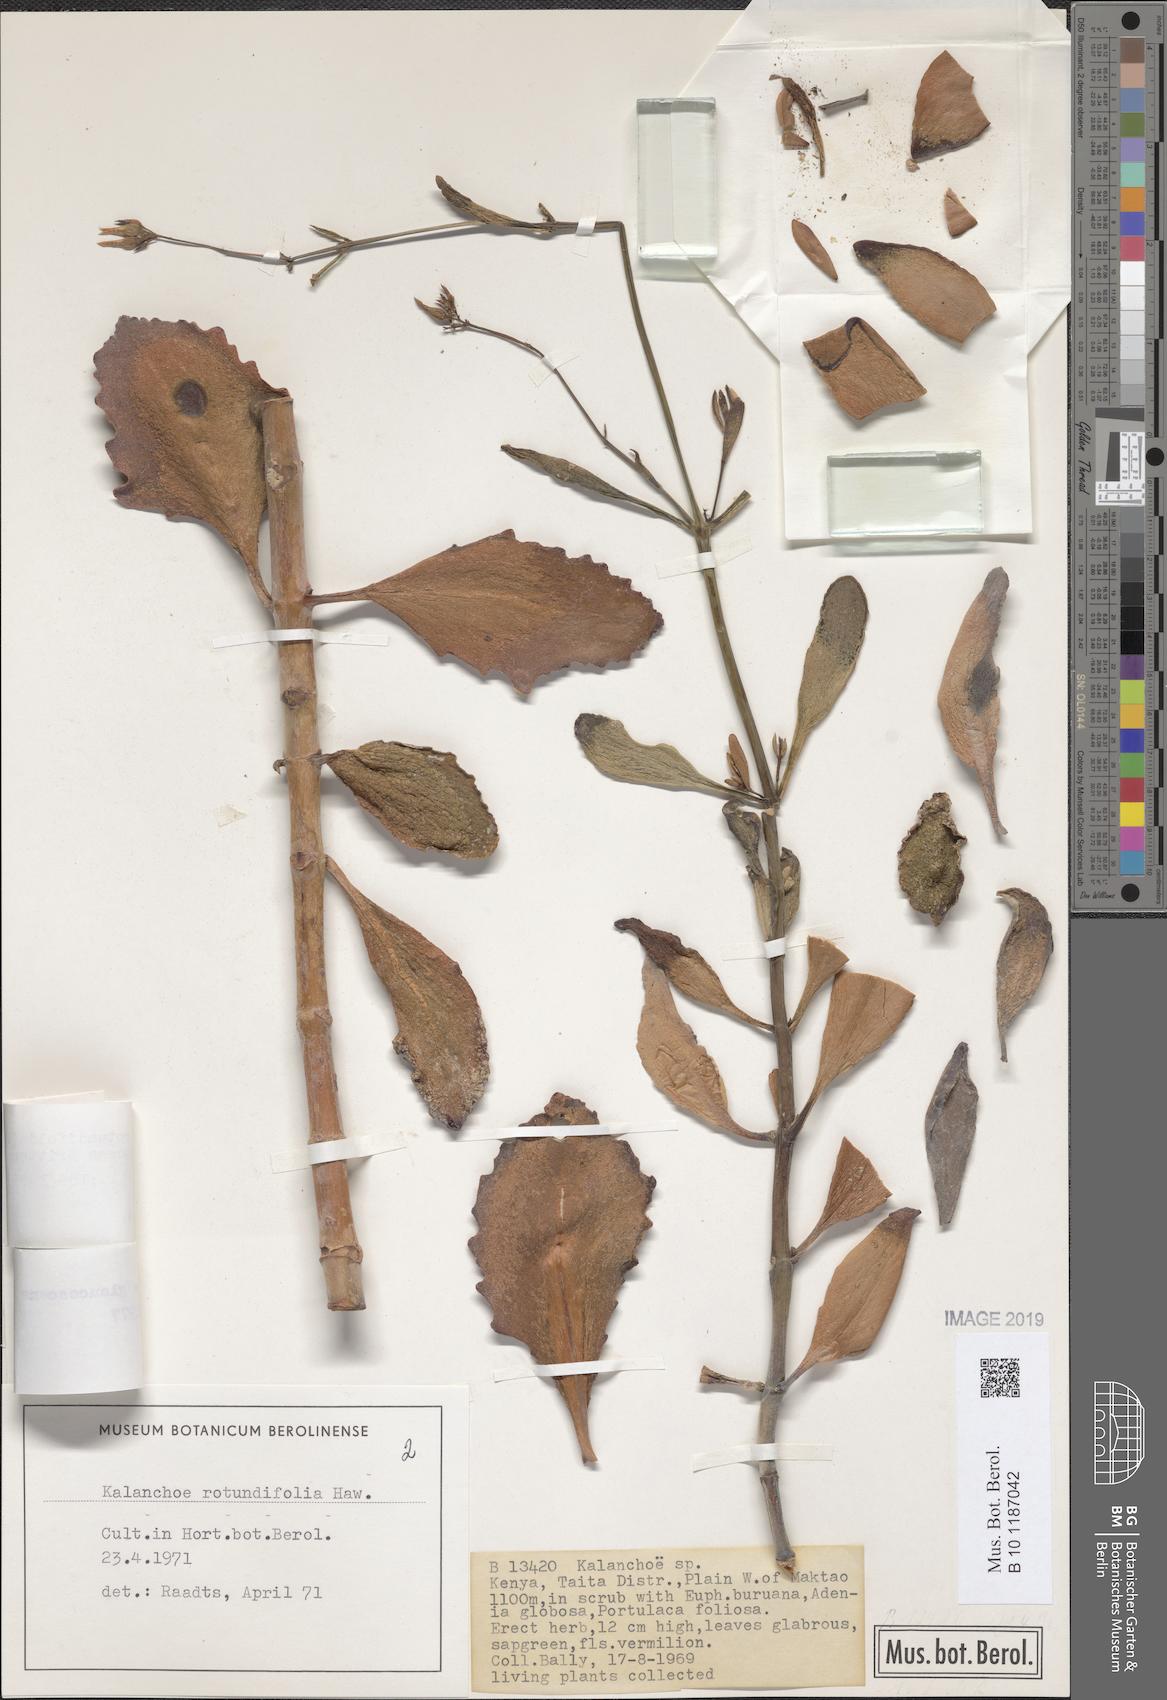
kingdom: Plantae
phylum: Tracheophyta
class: Magnoliopsida
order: Saxifragales
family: Crassulaceae
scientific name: Crassulaceae
